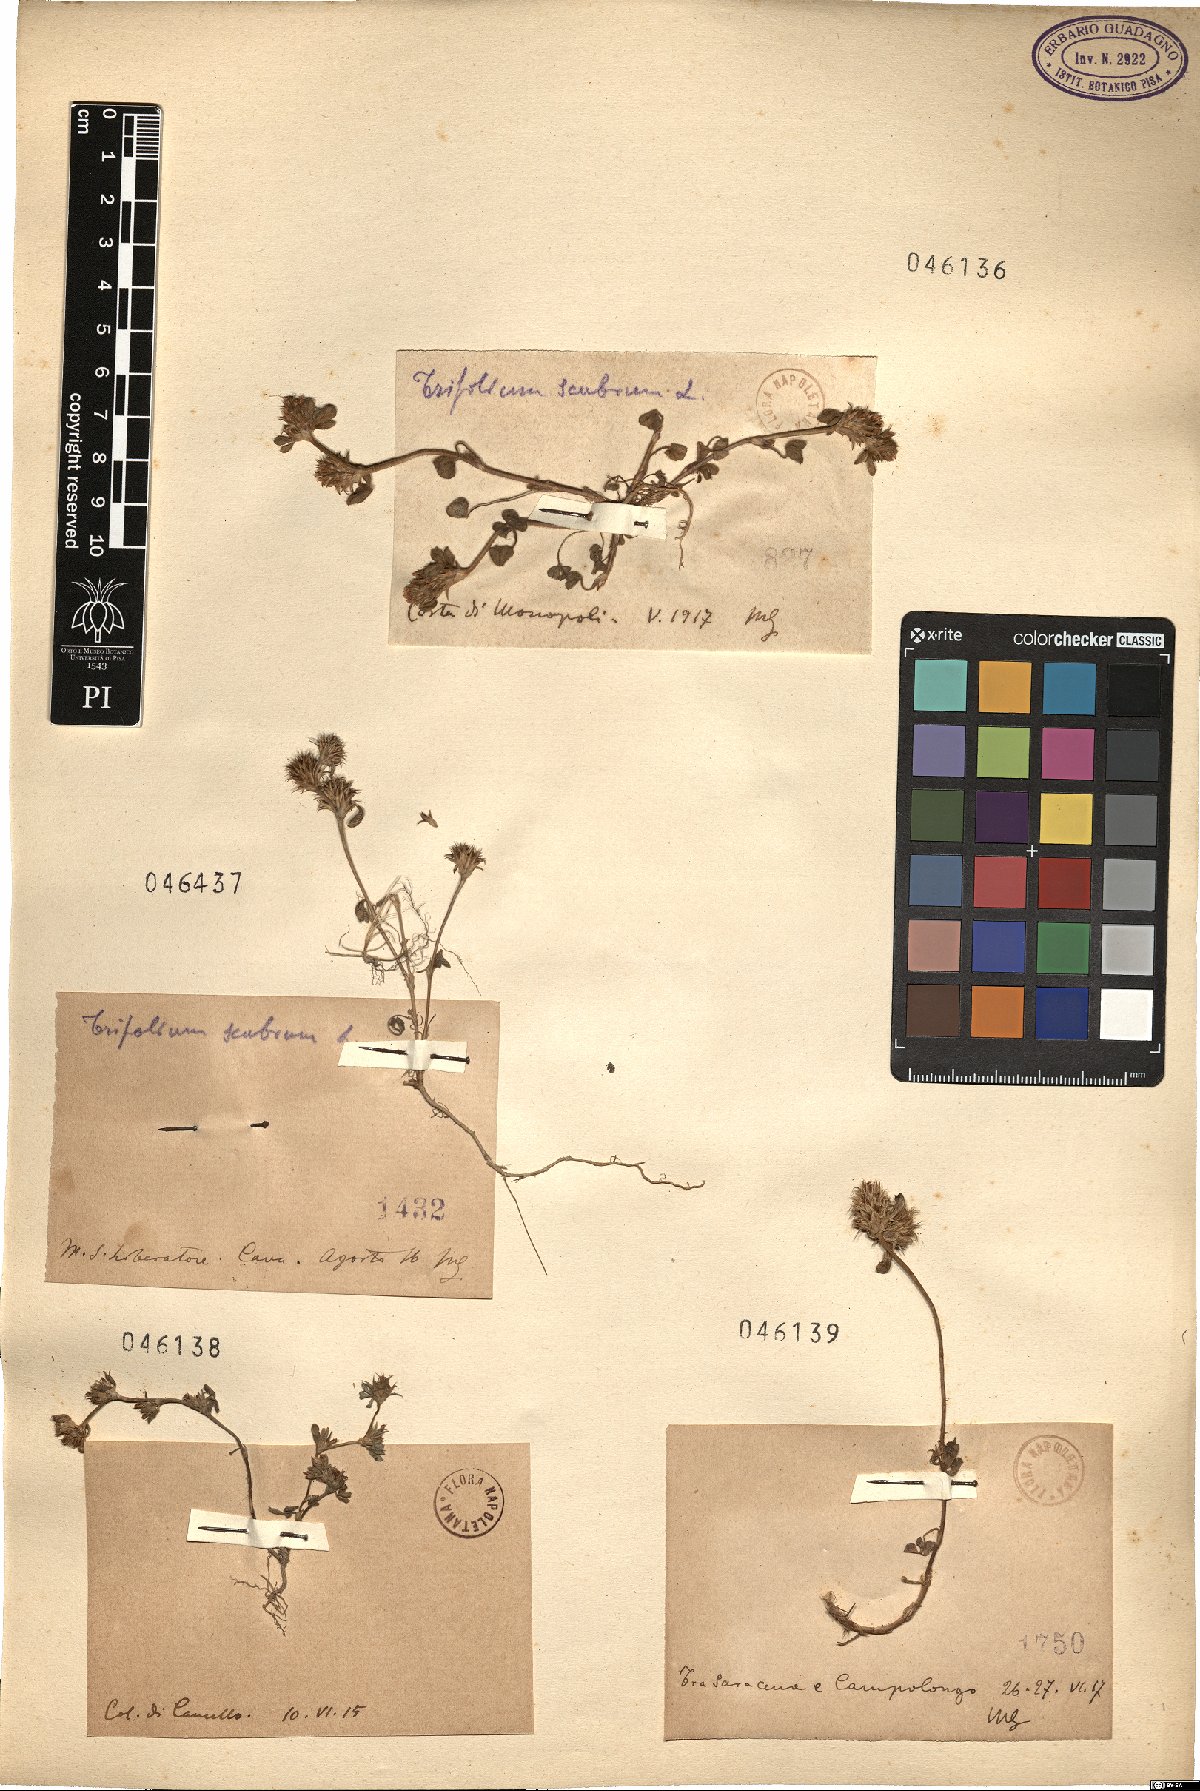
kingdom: Plantae
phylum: Tracheophyta
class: Magnoliopsida
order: Fabales
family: Fabaceae
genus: Trifolium
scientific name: Trifolium scabrum
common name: Rough clover
